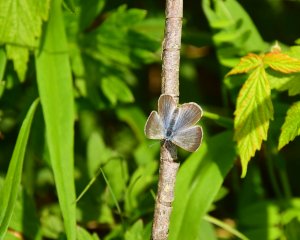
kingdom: Animalia
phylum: Arthropoda
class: Insecta
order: Lepidoptera
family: Lycaenidae
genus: Glaucopsyche
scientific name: Glaucopsyche lygdamus
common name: Silvery Blue
